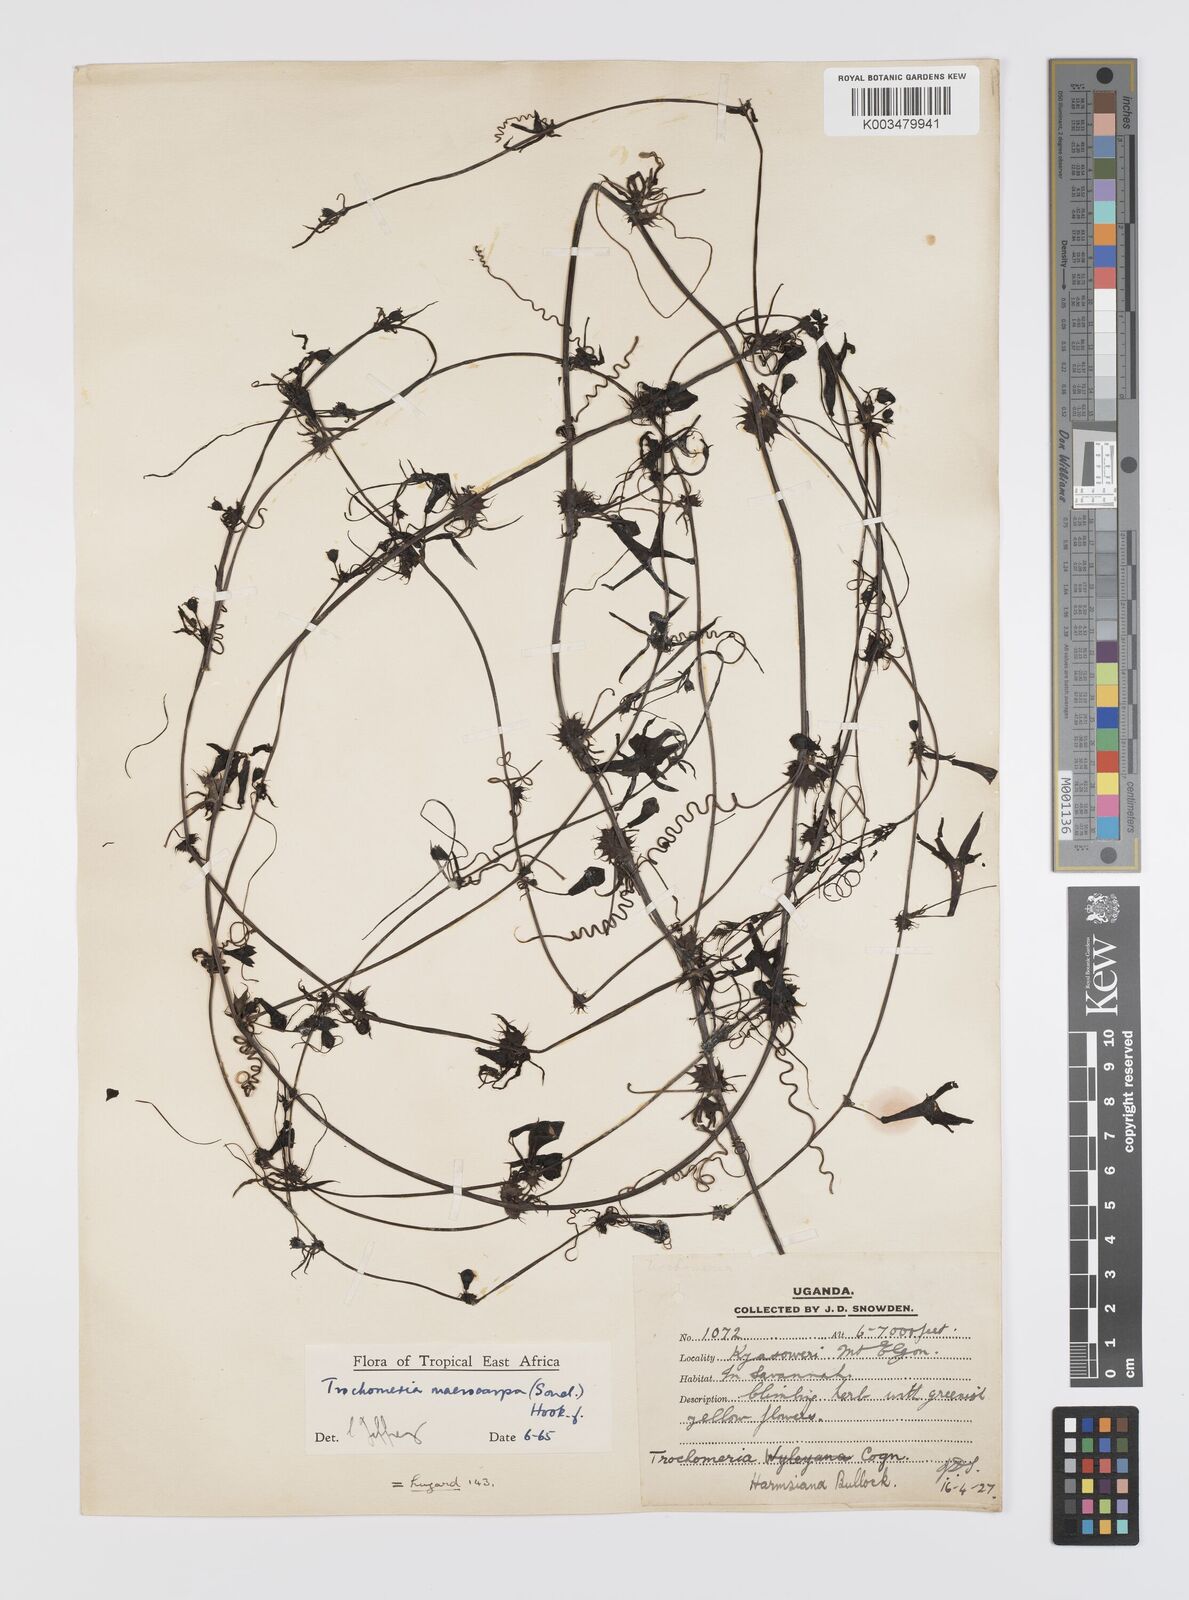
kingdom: Plantae
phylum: Tracheophyta
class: Magnoliopsida
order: Cucurbitales
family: Cucurbitaceae
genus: Trochomeria
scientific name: Trochomeria macrocarpa
